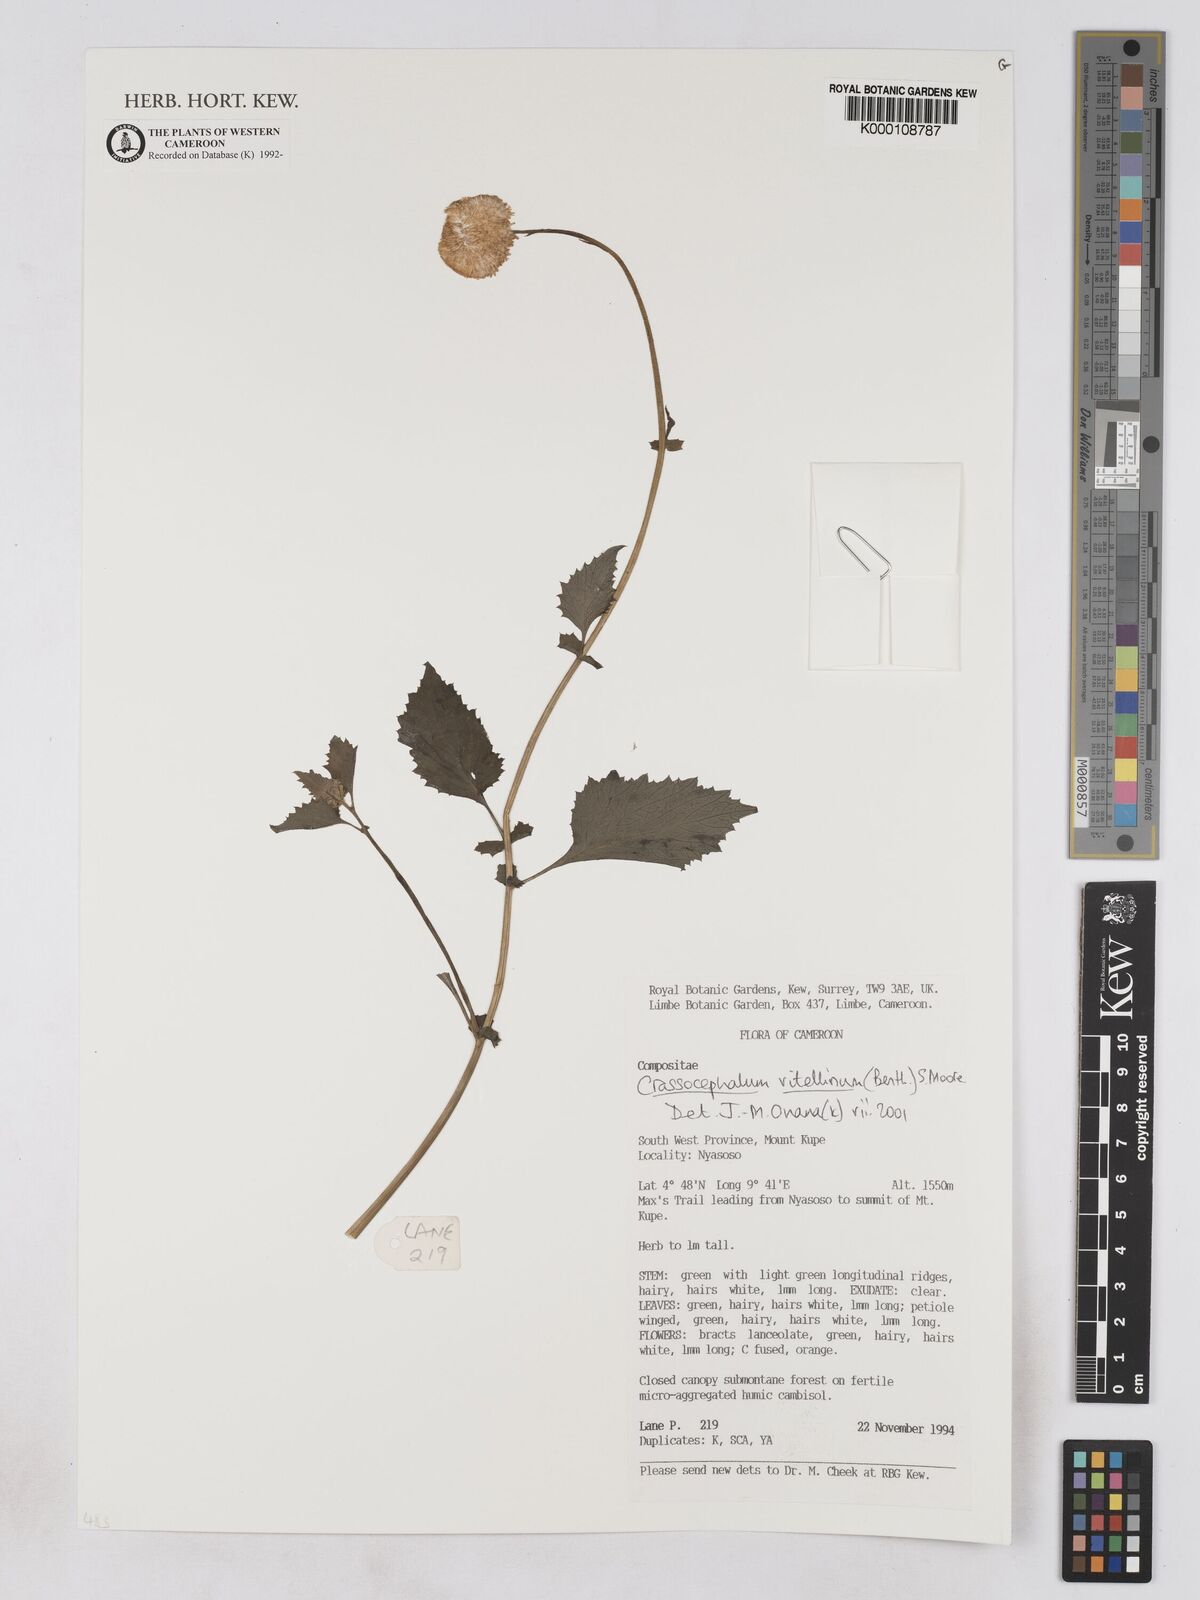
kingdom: Plantae
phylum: Tracheophyta
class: Magnoliopsida
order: Asterales
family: Asteraceae
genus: Crassocephalum
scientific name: Crassocephalum vitellinum
